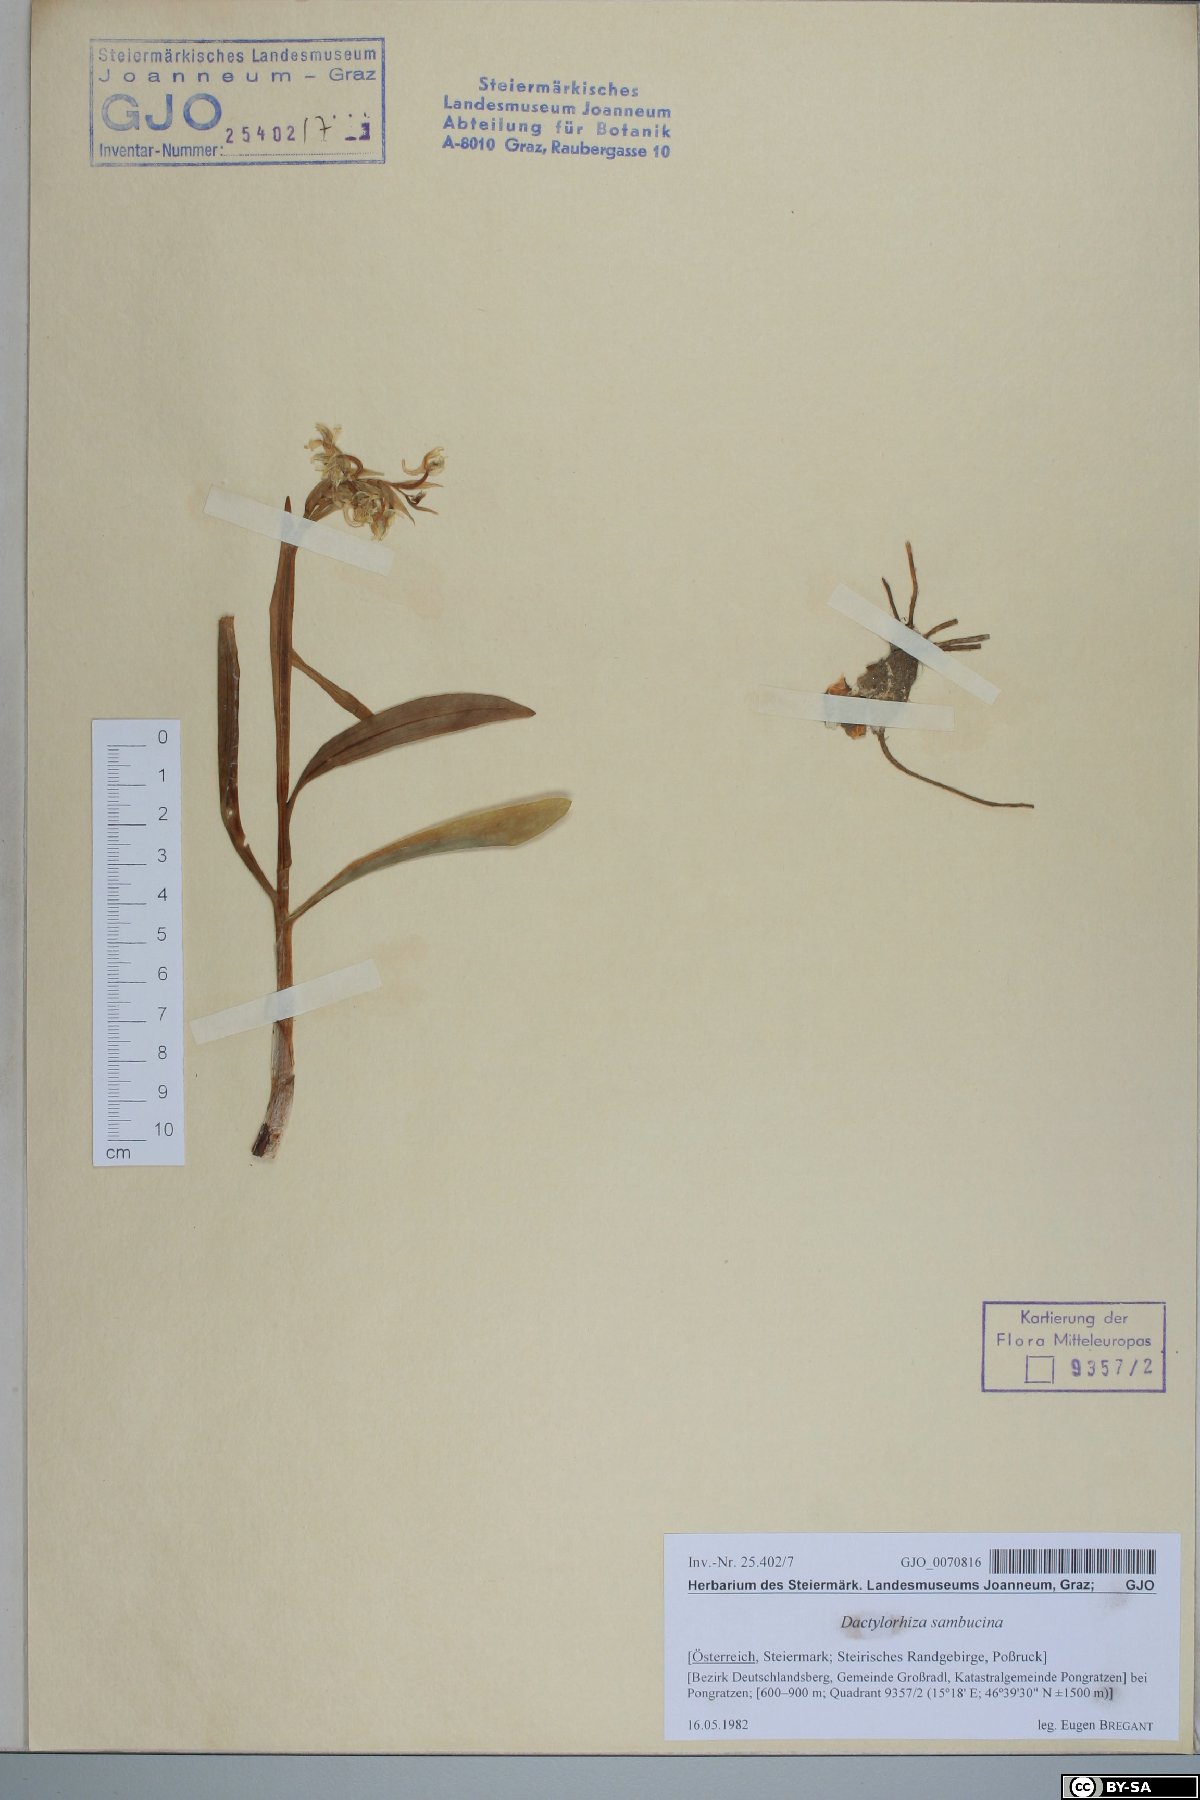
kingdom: Plantae
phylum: Tracheophyta
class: Liliopsida
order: Asparagales
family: Orchidaceae
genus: Dactylorhiza
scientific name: Dactylorhiza sambucina
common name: Elder-flowered orchid
